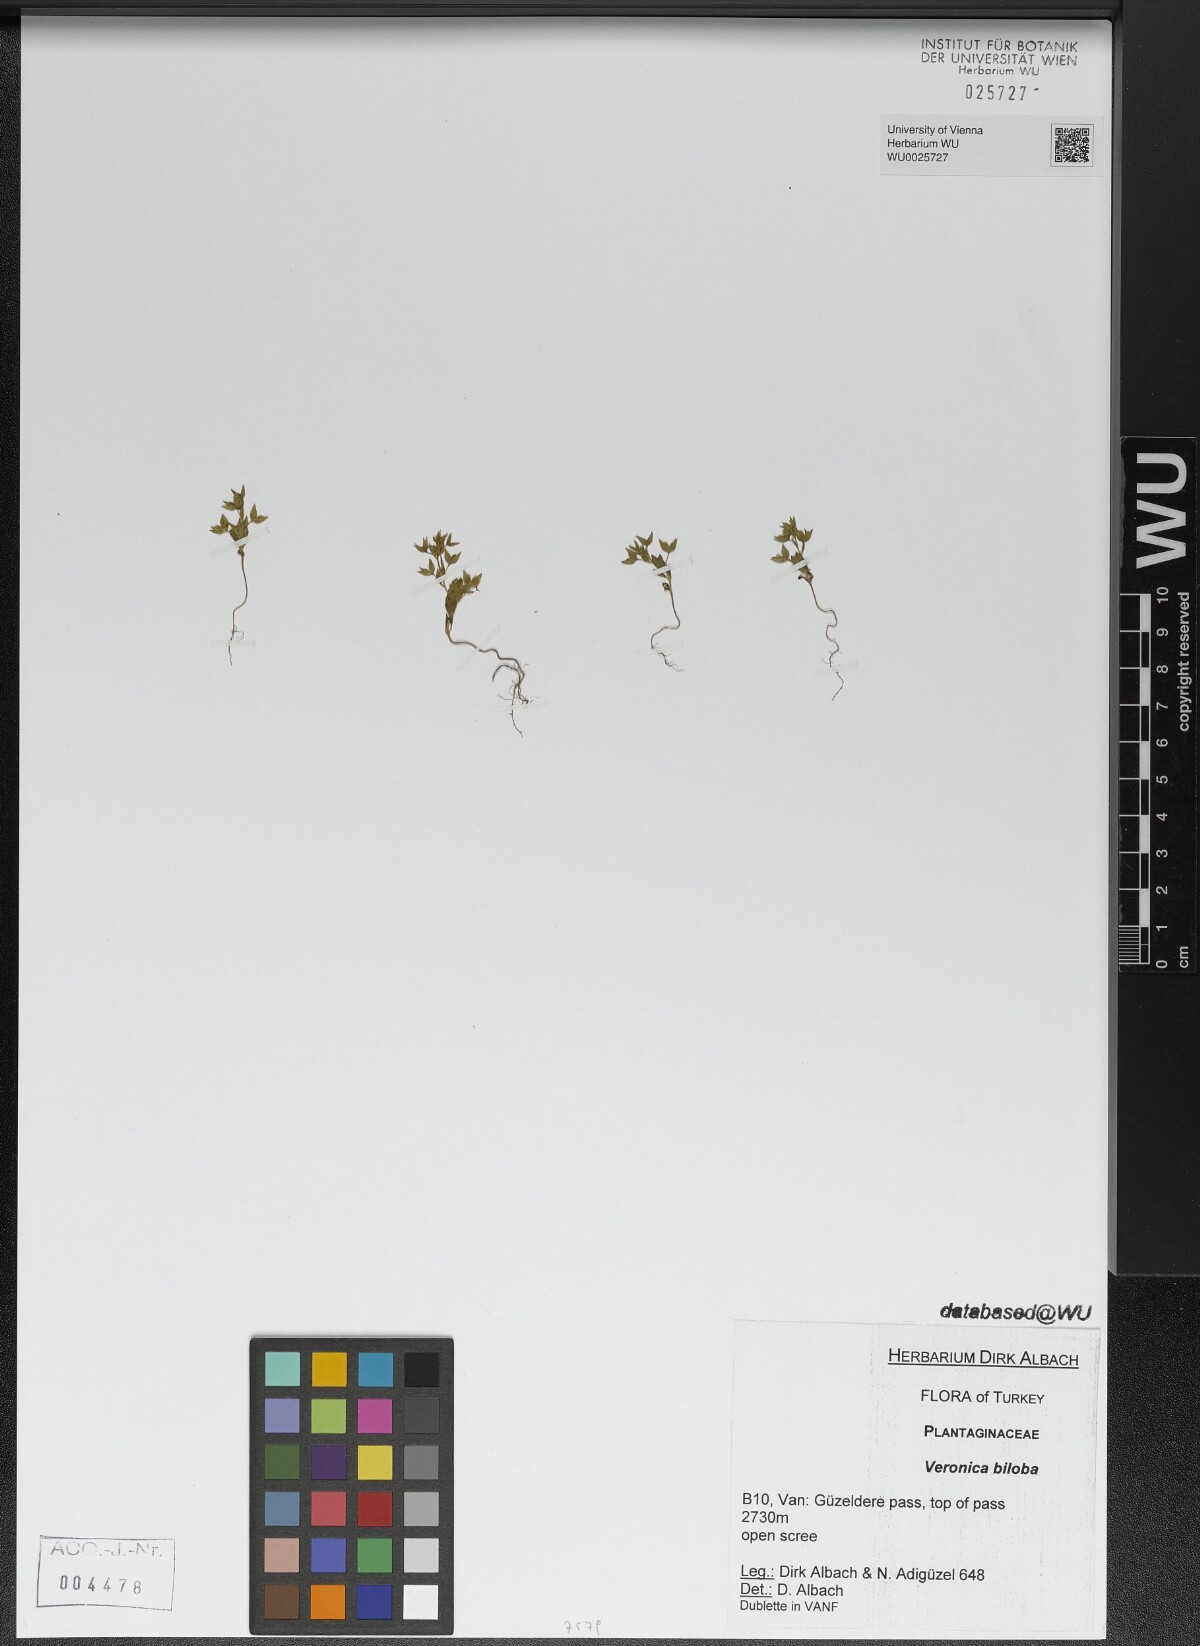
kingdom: Plantae
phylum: Tracheophyta
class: Magnoliopsida
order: Lamiales
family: Plantaginaceae
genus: Veronica
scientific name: Veronica biloba
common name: Twolobe speedwell
